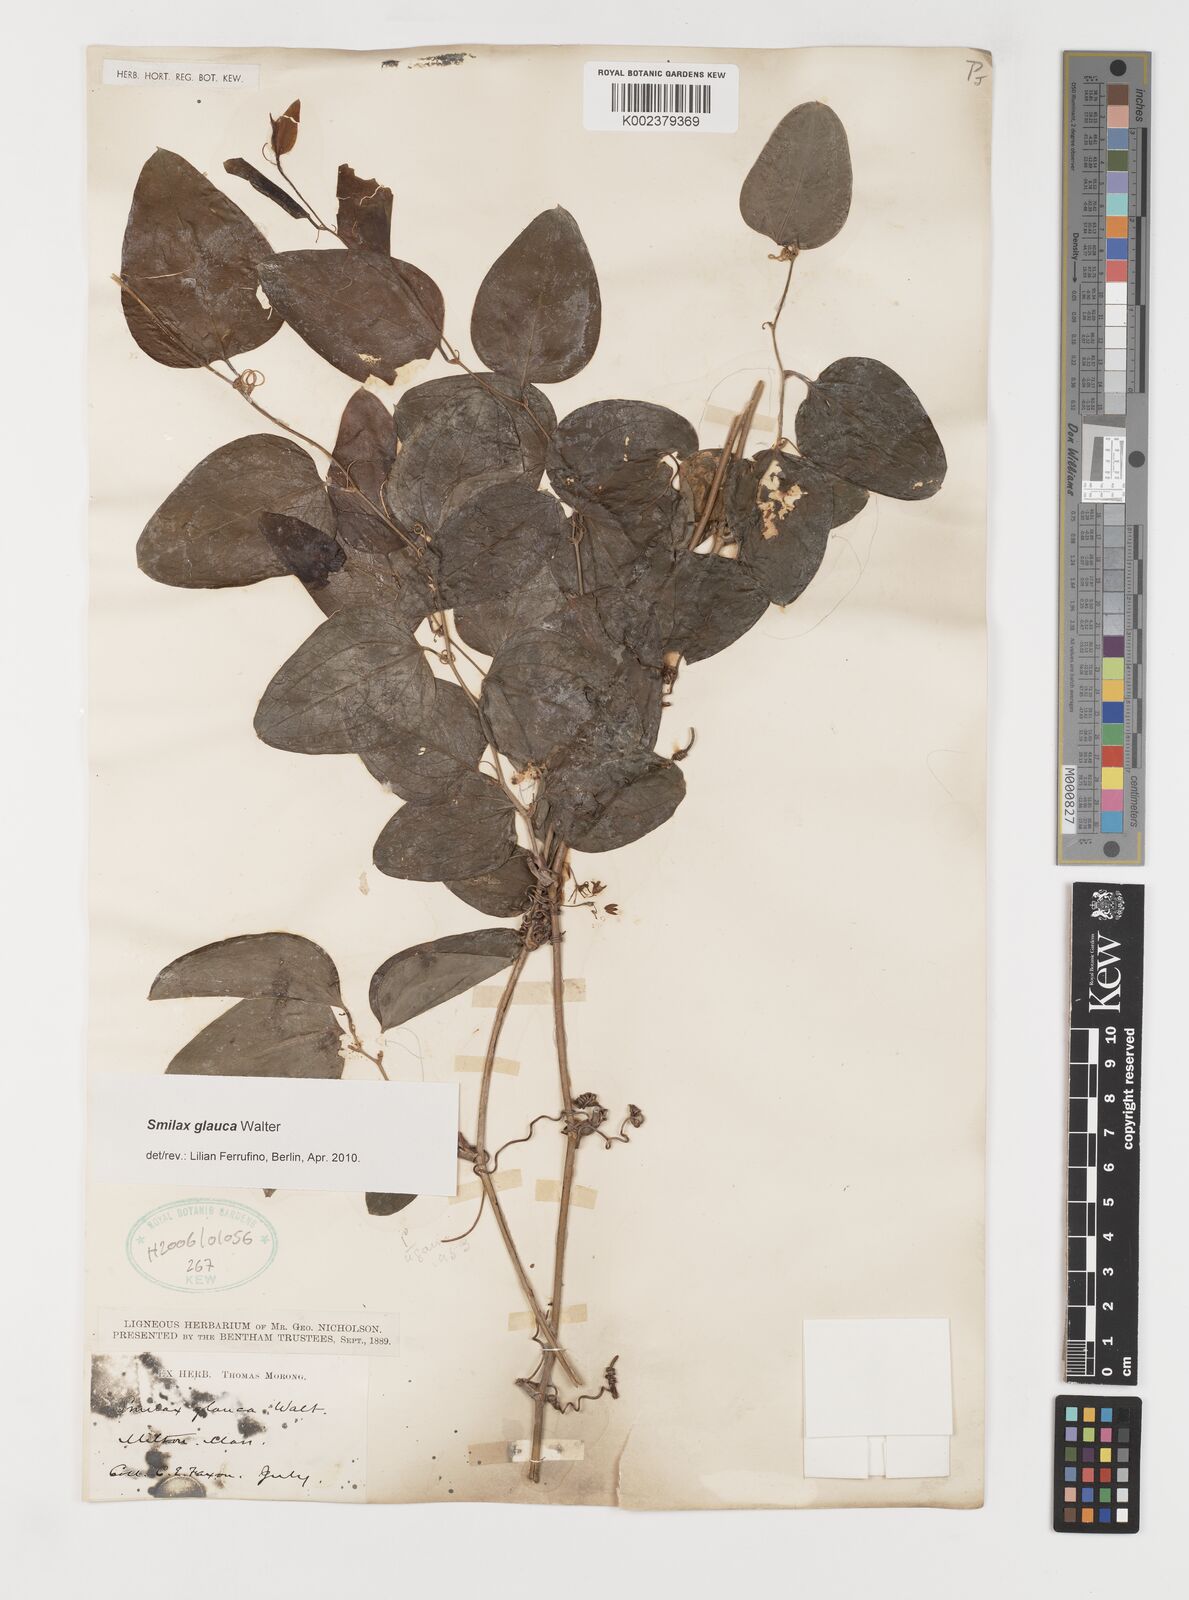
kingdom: Plantae
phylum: Tracheophyta
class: Liliopsida
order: Liliales
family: Smilacaceae
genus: Smilax
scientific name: Smilax glauca
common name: Cat greenbrier
